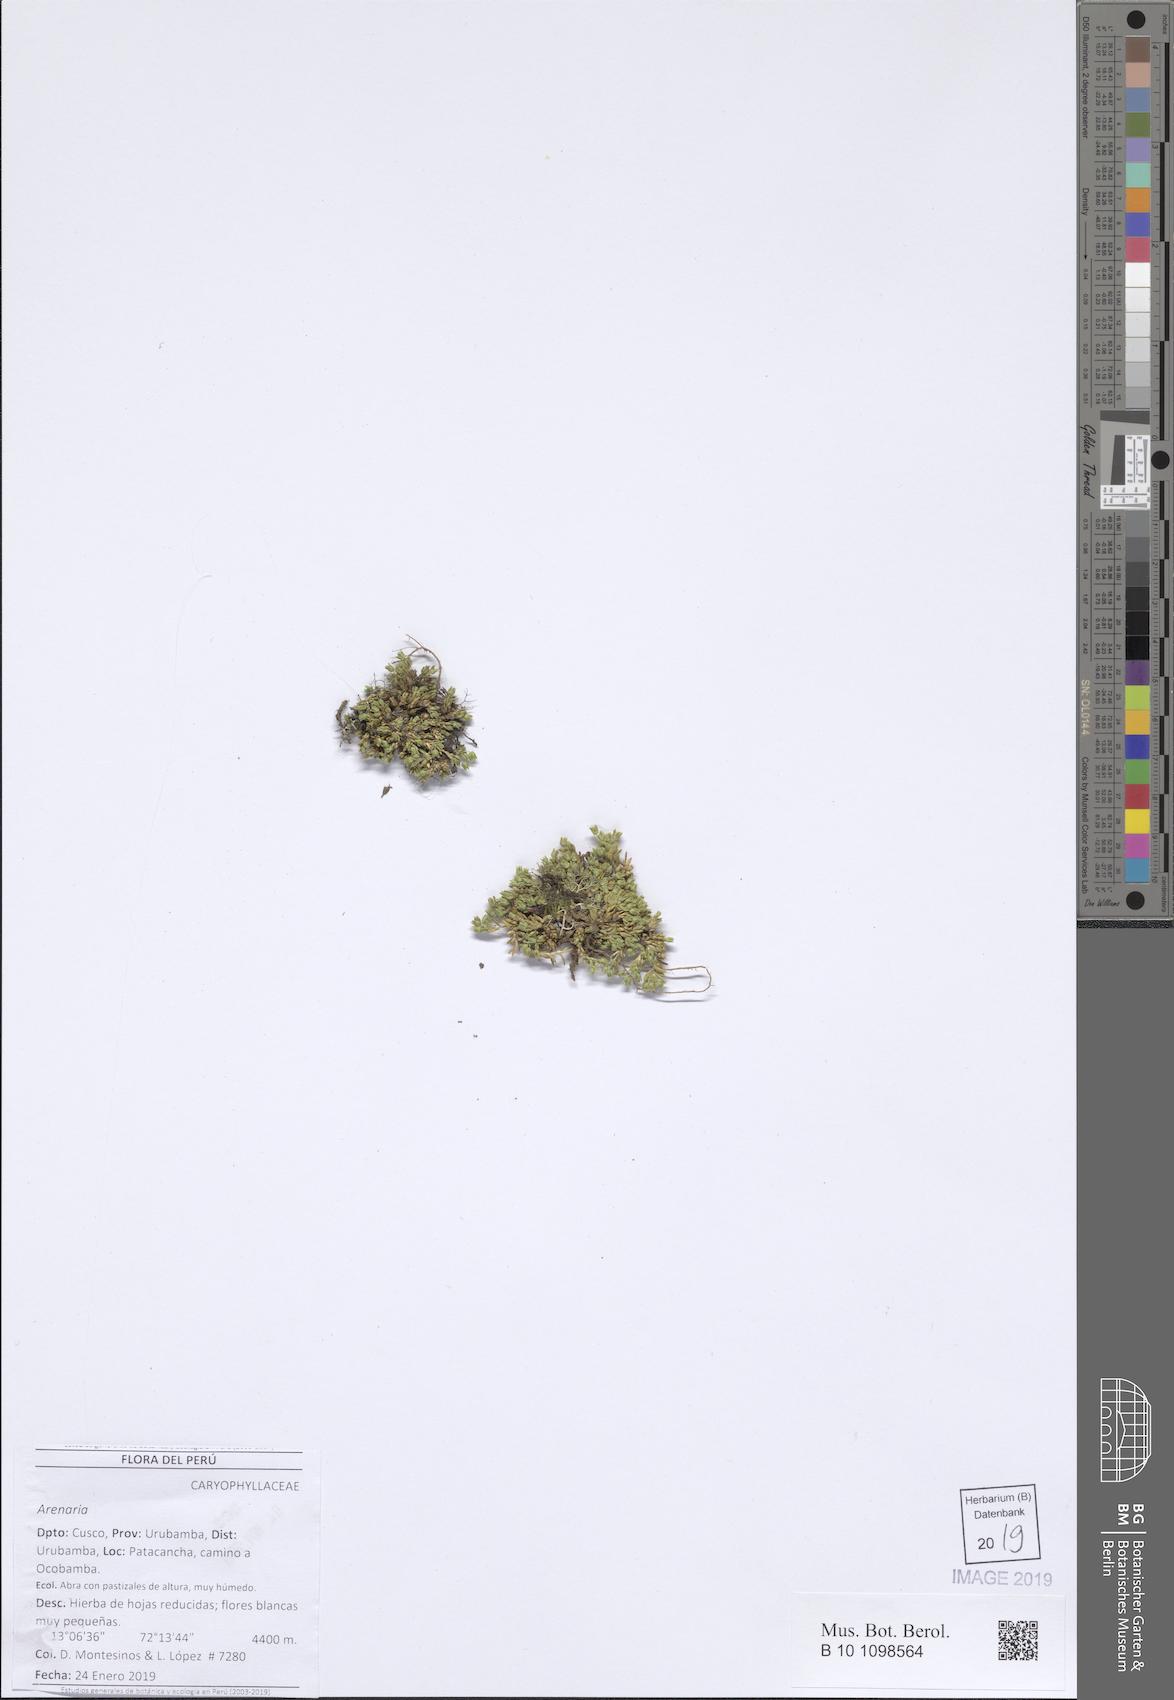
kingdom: Plantae
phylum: Tracheophyta
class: Magnoliopsida
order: Caryophyllales
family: Caryophyllaceae
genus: Arenaria
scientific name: Arenaria
